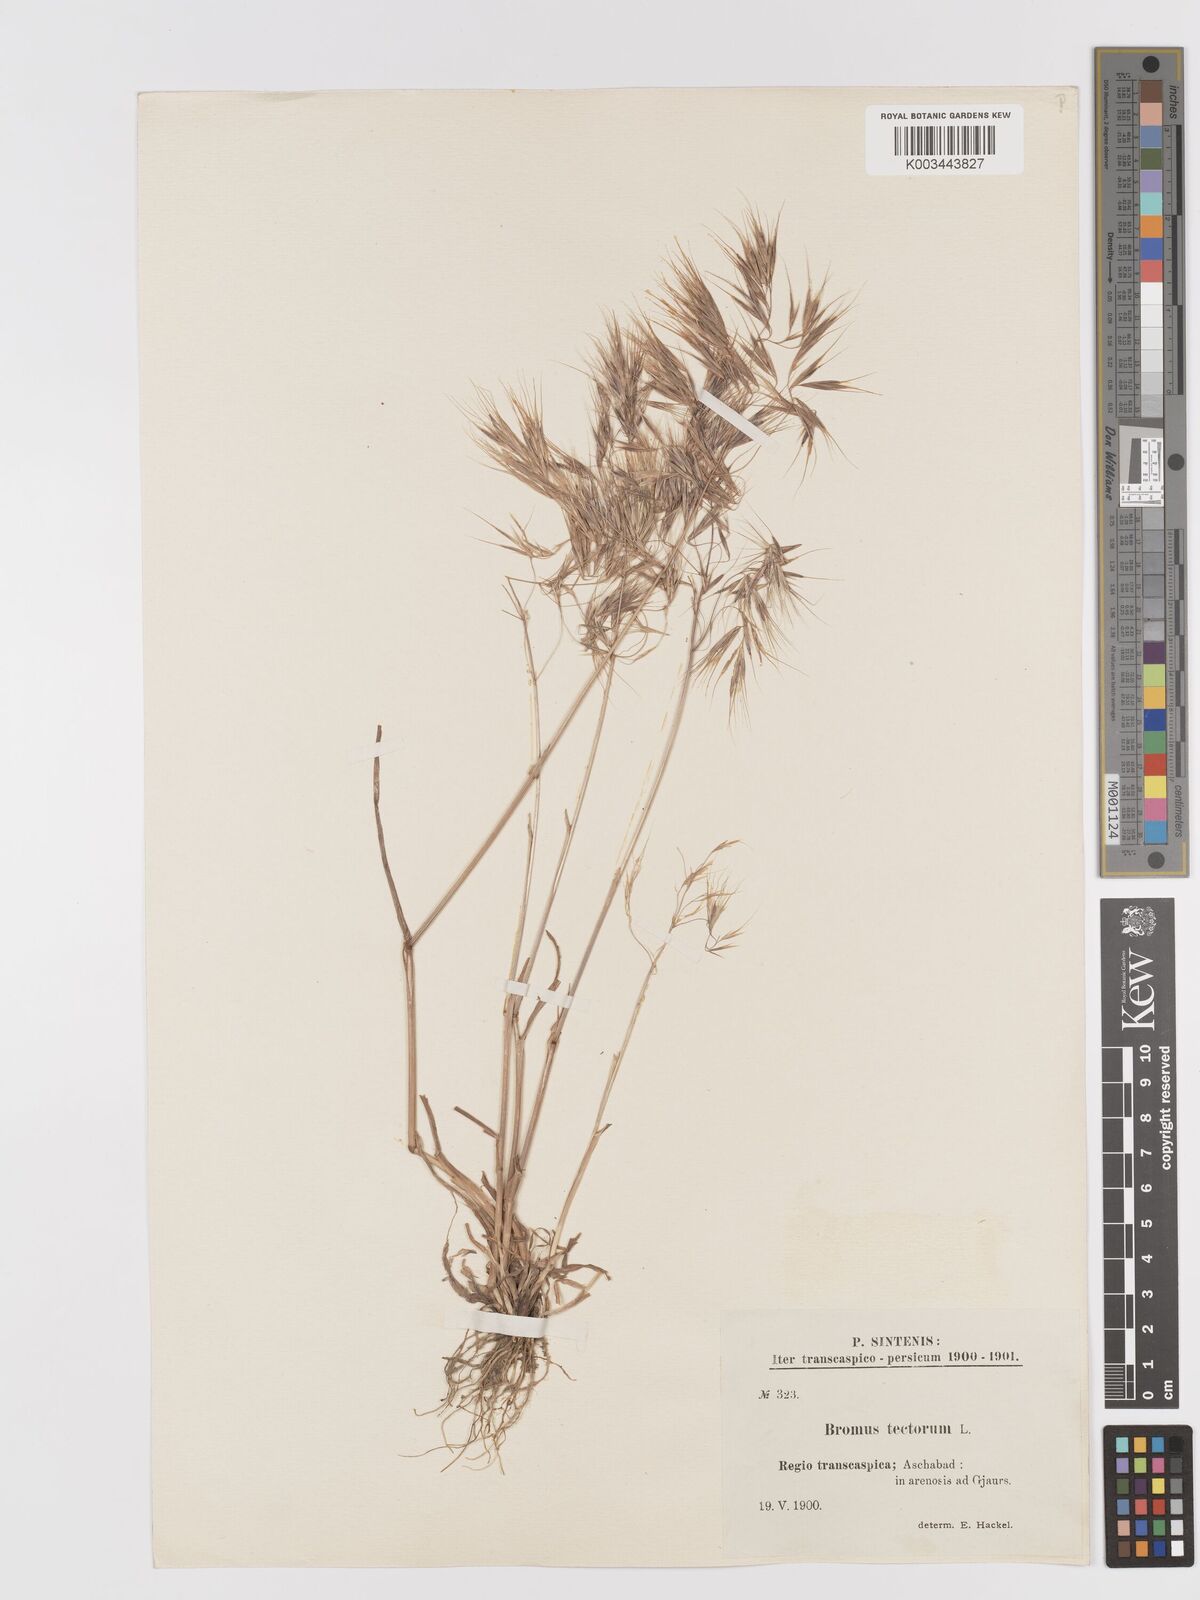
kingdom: Plantae
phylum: Tracheophyta
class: Liliopsida
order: Poales
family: Poaceae
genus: Bromus
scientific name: Bromus tectorum
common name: Cheatgrass
